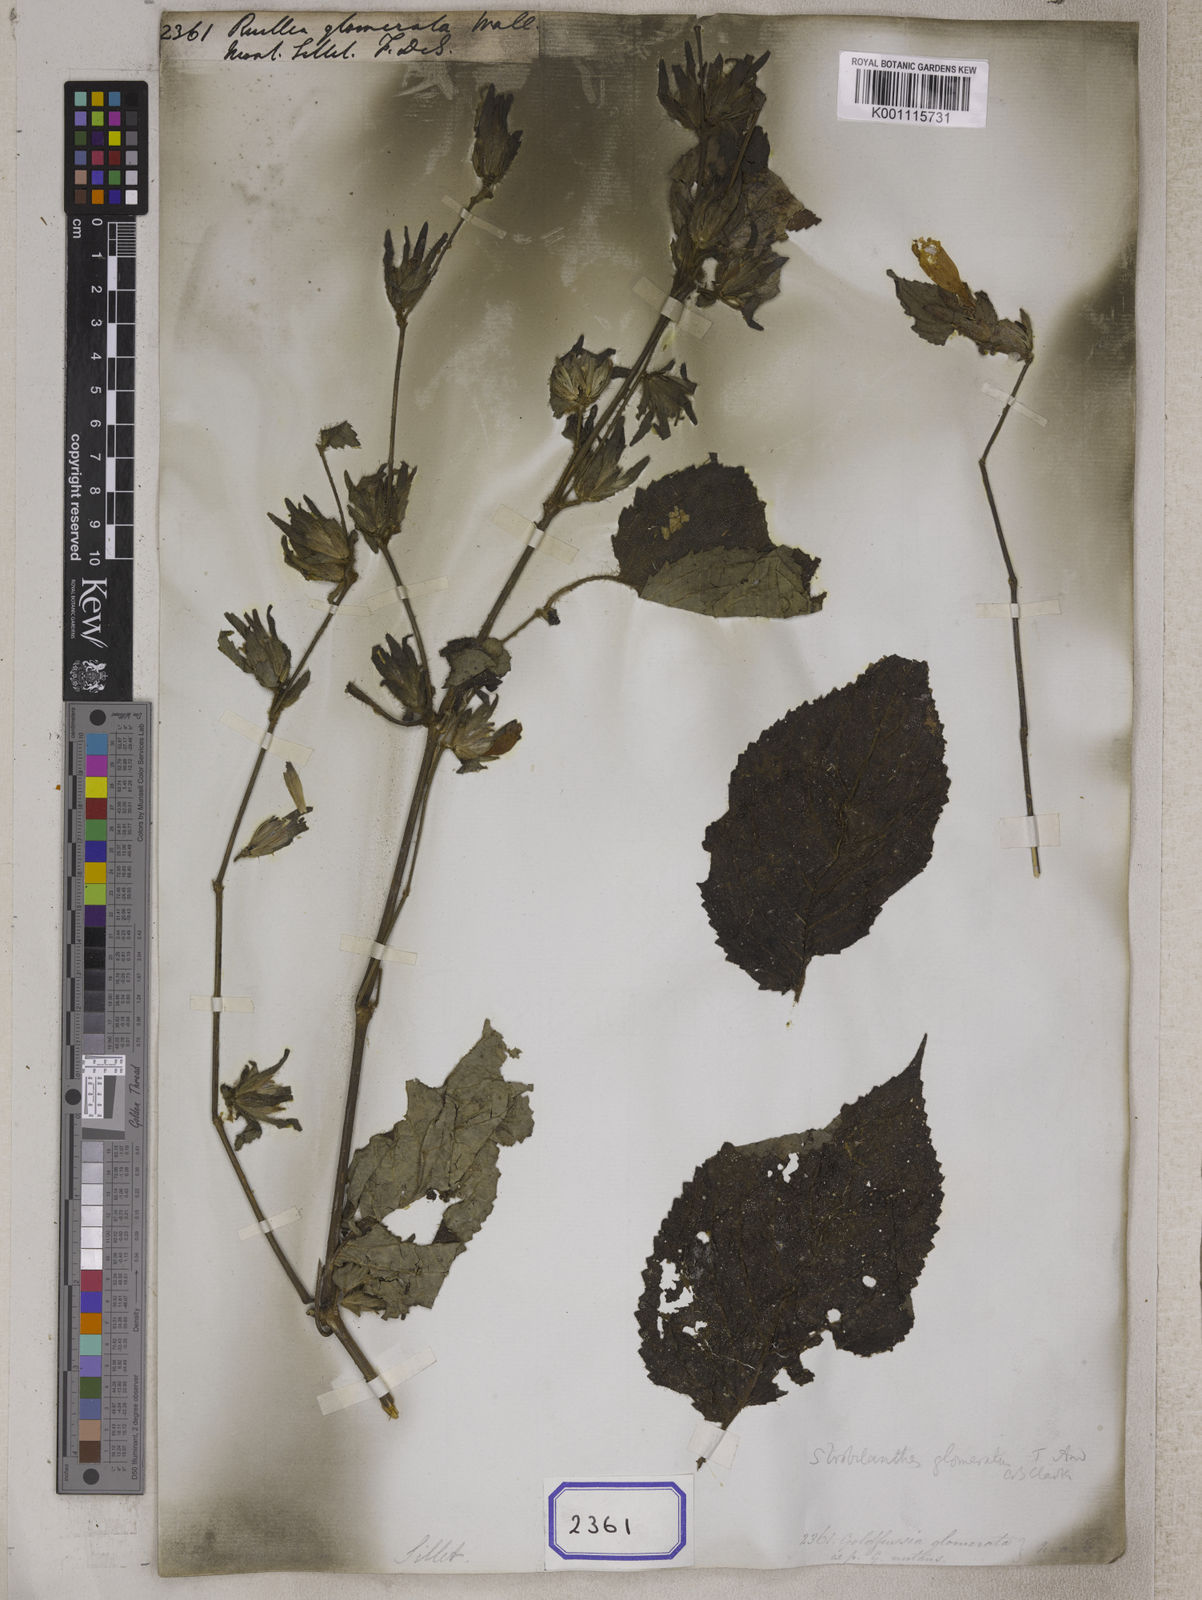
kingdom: Plantae
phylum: Tracheophyta
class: Magnoliopsida
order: Lamiales
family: Acanthaceae
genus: Strobilanthes
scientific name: Strobilanthes glomerata
